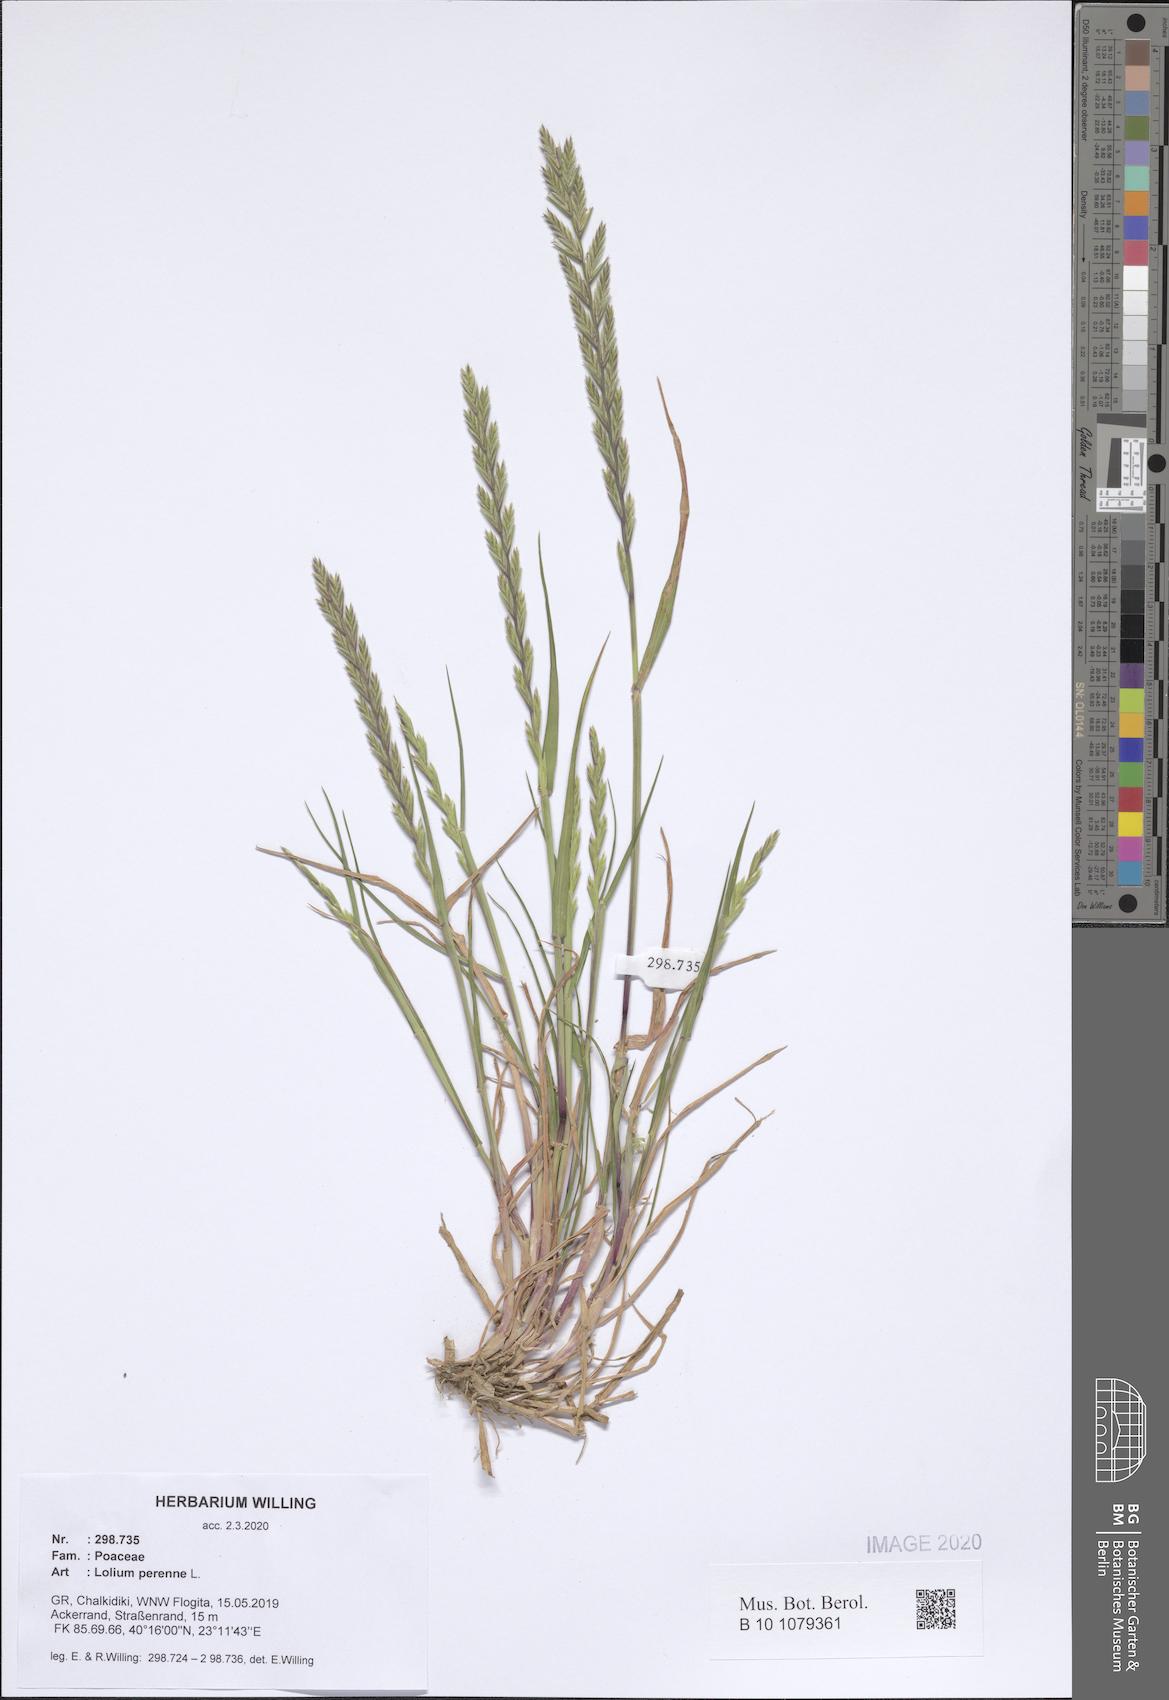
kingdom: Plantae
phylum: Tracheophyta
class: Liliopsida
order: Poales
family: Poaceae
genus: Lolium
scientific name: Lolium perenne
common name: Perennial ryegrass
